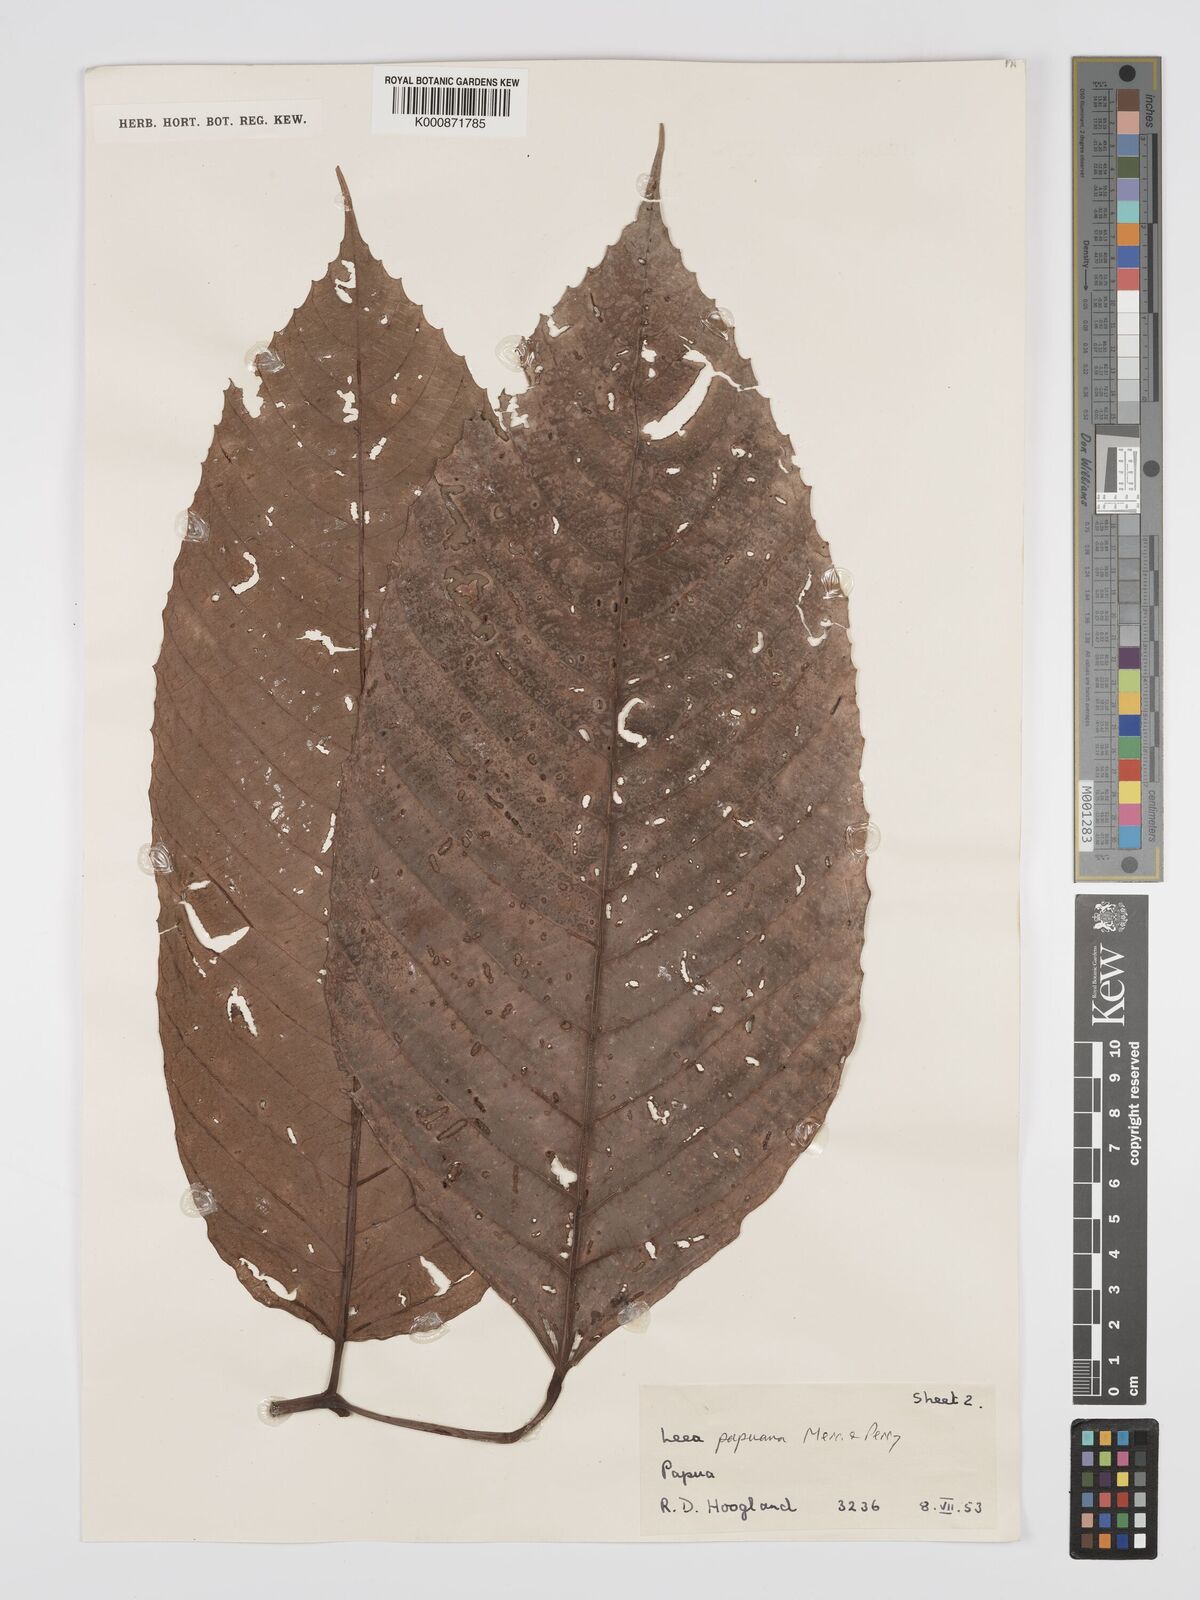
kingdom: Plantae
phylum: Tracheophyta
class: Magnoliopsida
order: Vitales
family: Vitaceae
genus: Leea
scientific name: Leea papuana
